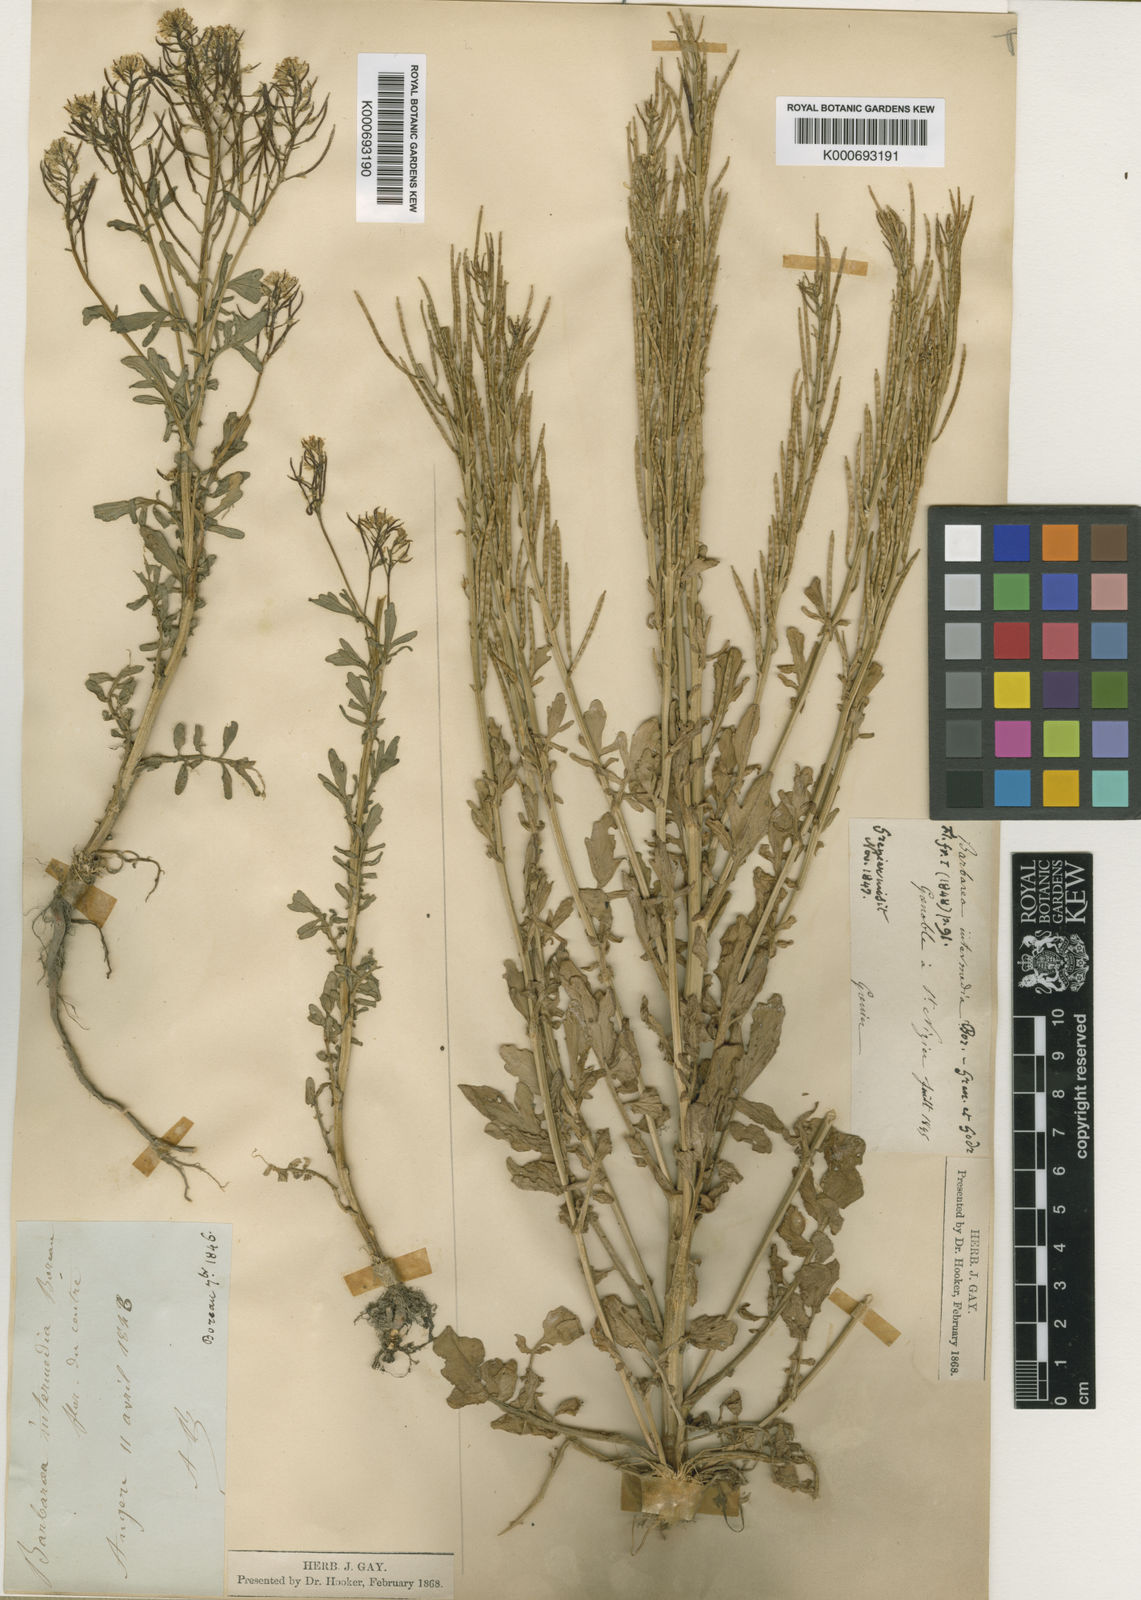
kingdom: Plantae
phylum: Tracheophyta
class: Magnoliopsida
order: Brassicales
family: Brassicaceae
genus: Barbarea
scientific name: Barbarea intermedia
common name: Medium-flowered winter-cress
